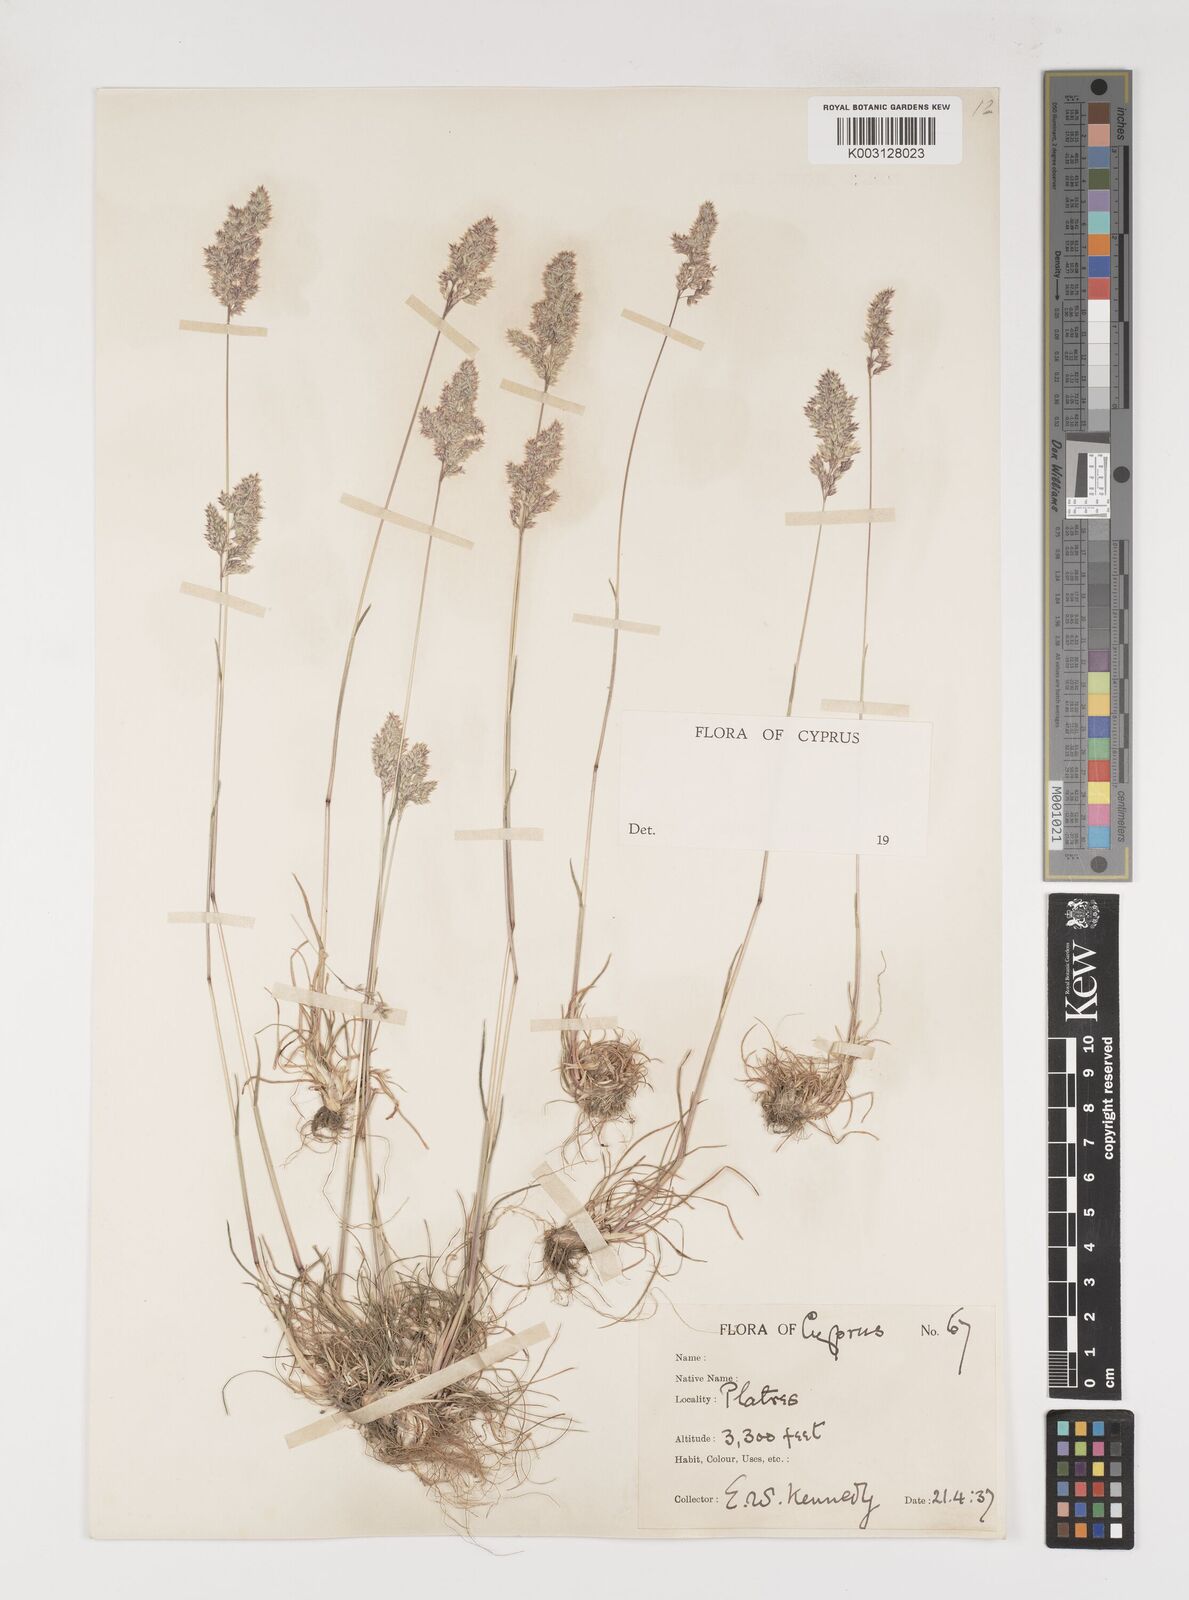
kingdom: Plantae
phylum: Tracheophyta
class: Liliopsida
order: Poales
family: Poaceae
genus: Poa
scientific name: Poa bulbosa
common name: Bulbous bluegrass
